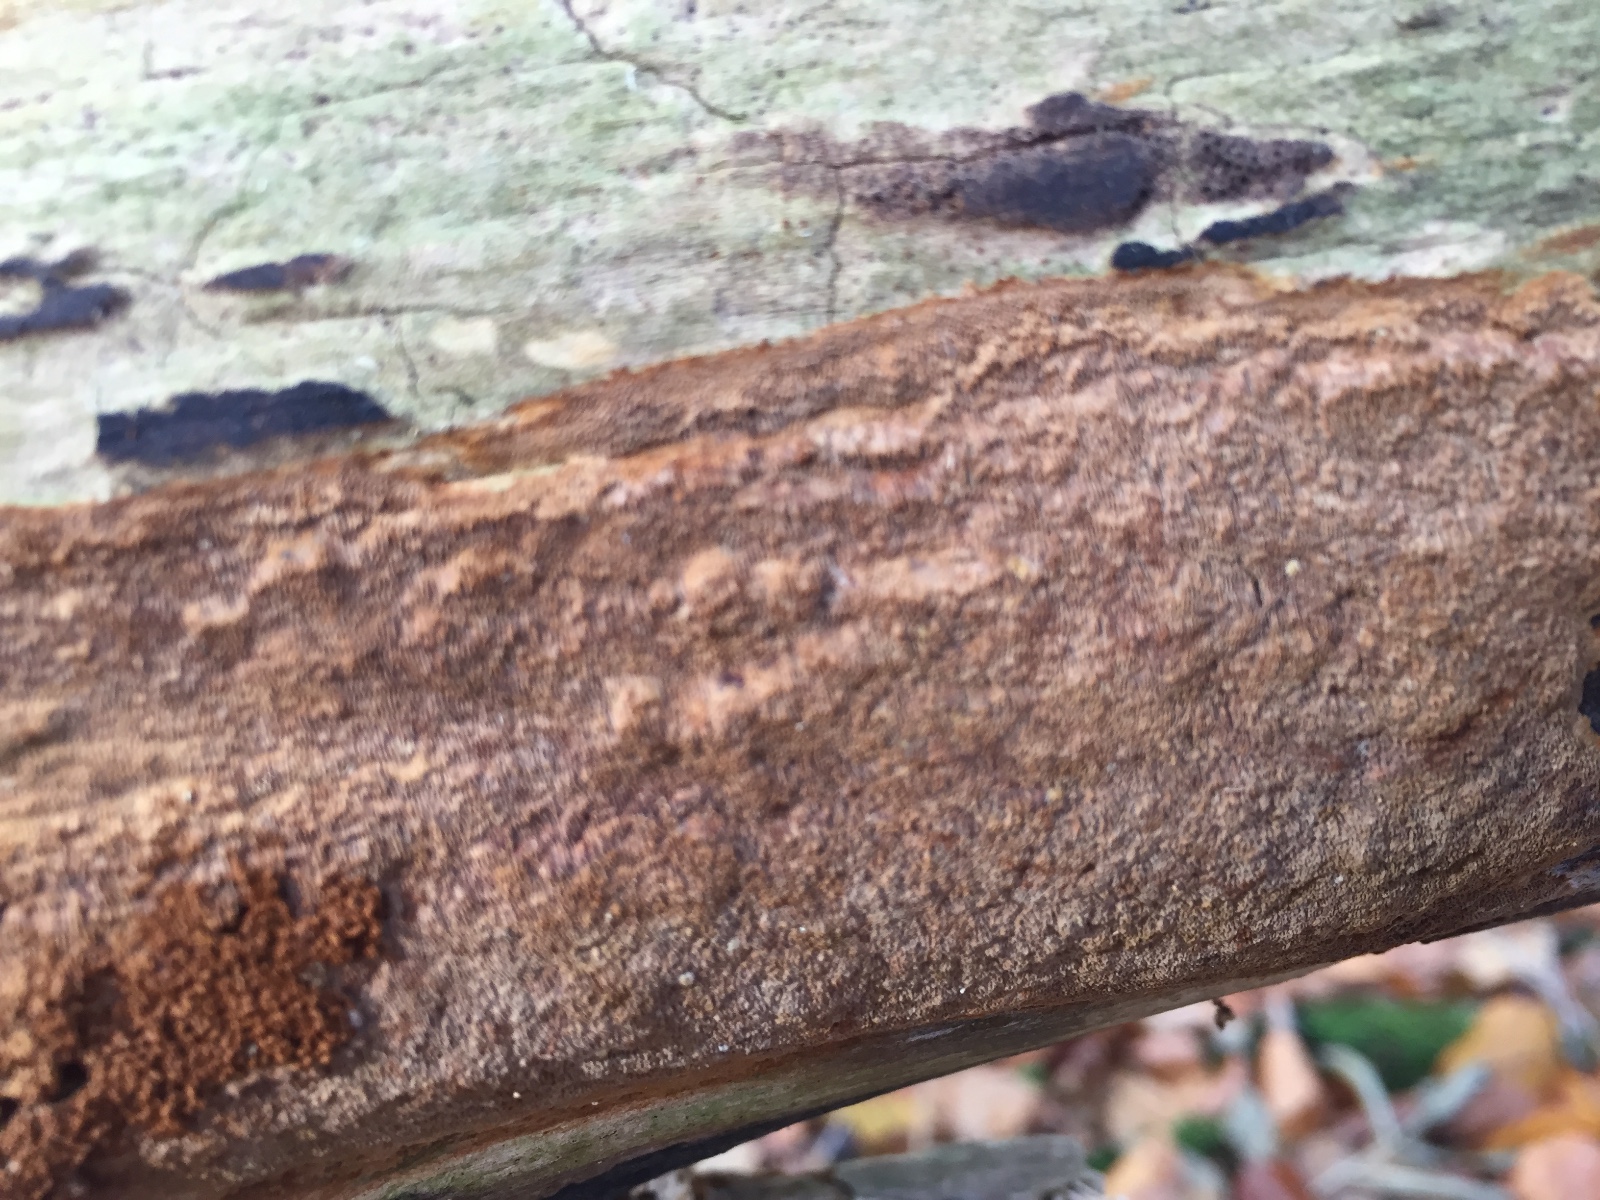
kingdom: Fungi
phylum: Basidiomycota
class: Agaricomycetes
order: Hymenochaetales
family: Hymenochaetaceae
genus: Fuscoporia
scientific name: Fuscoporia ferrea
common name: skorpe-ildporesvamp
